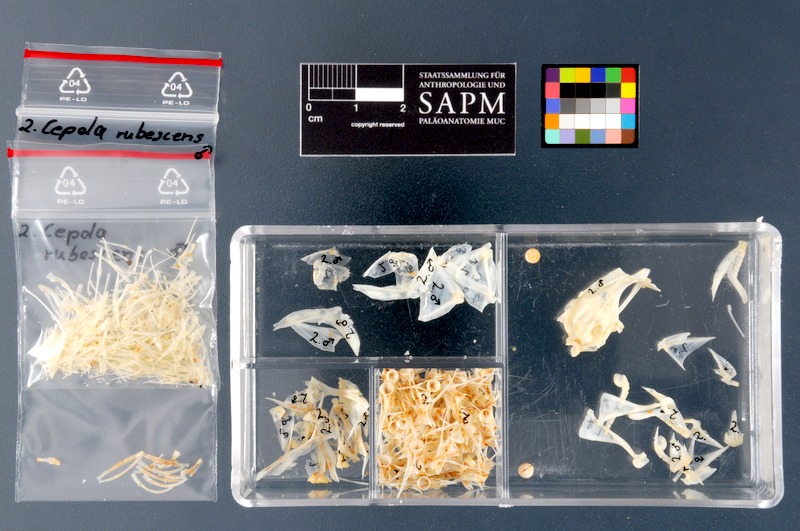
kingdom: Animalia
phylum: Chordata
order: Perciformes
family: Cepolidae
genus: Cepola
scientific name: Cepola macrophthalma
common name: Red bandfish
